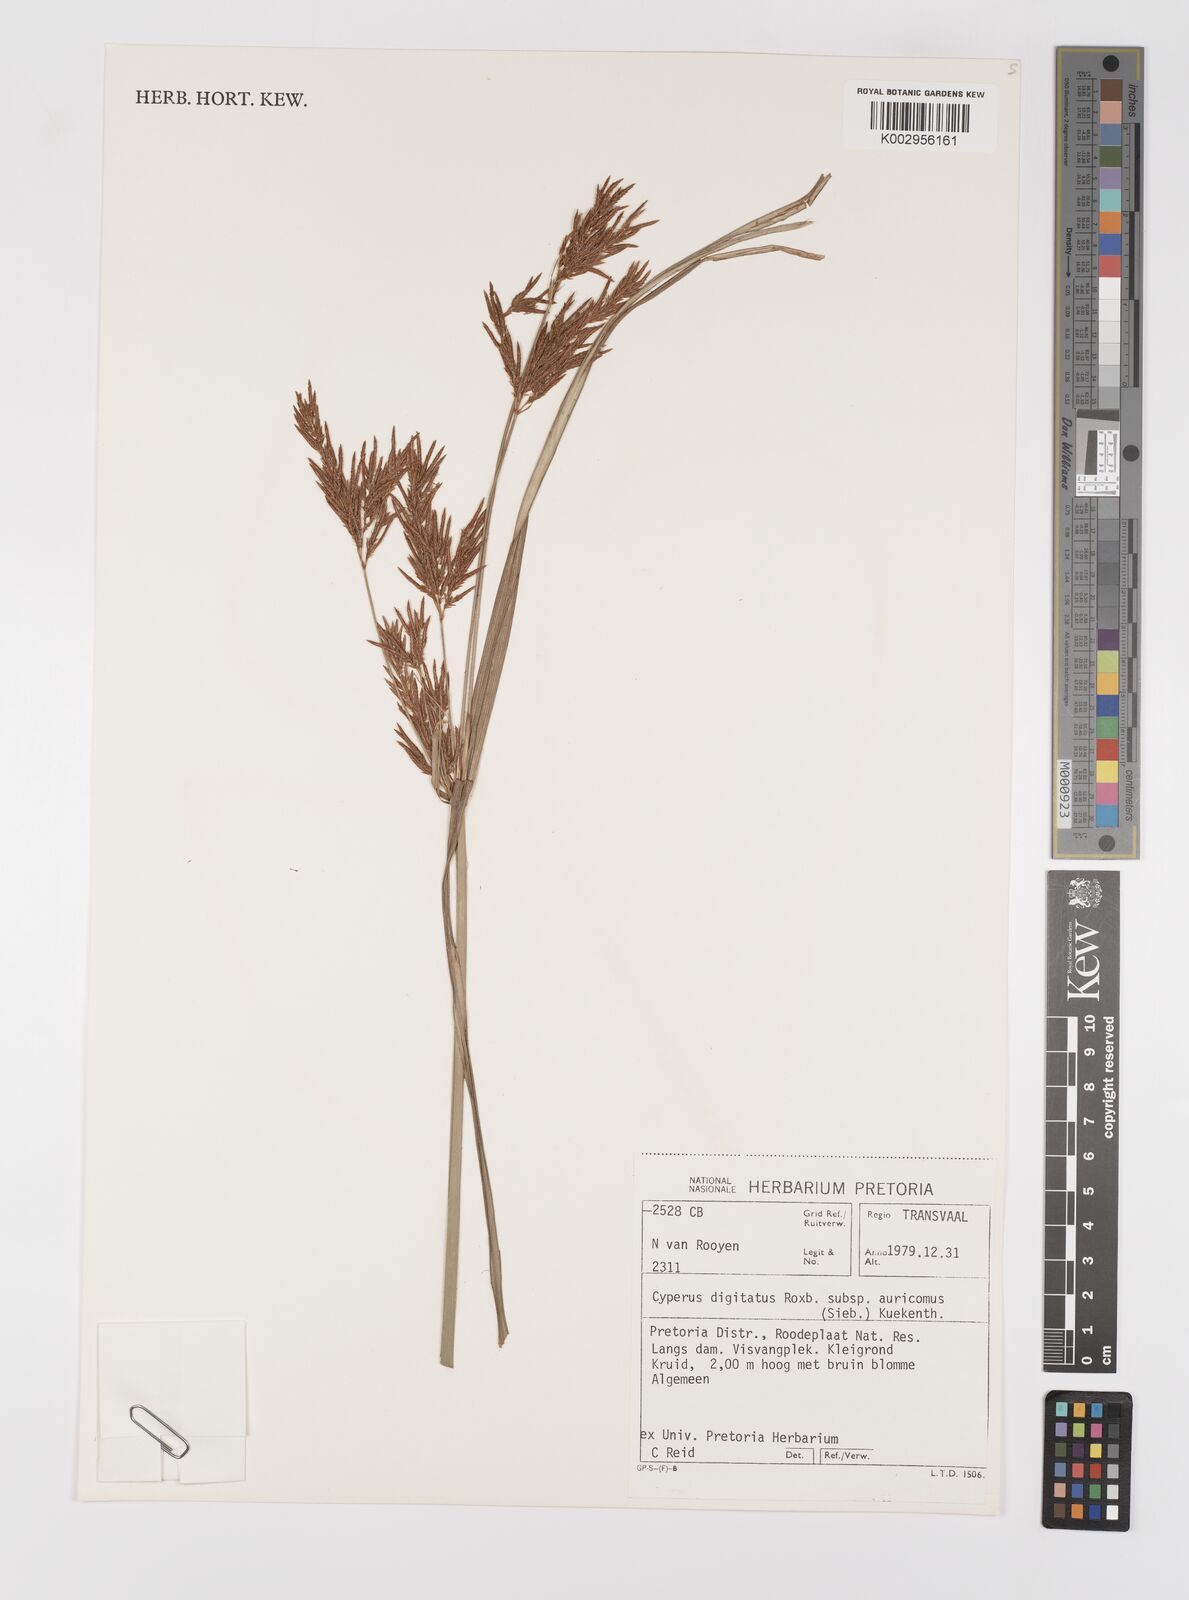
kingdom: Plantae
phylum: Tracheophyta
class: Liliopsida
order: Poales
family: Cyperaceae
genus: Cyperus
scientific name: Cyperus digitatus
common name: Finger flatsedge
